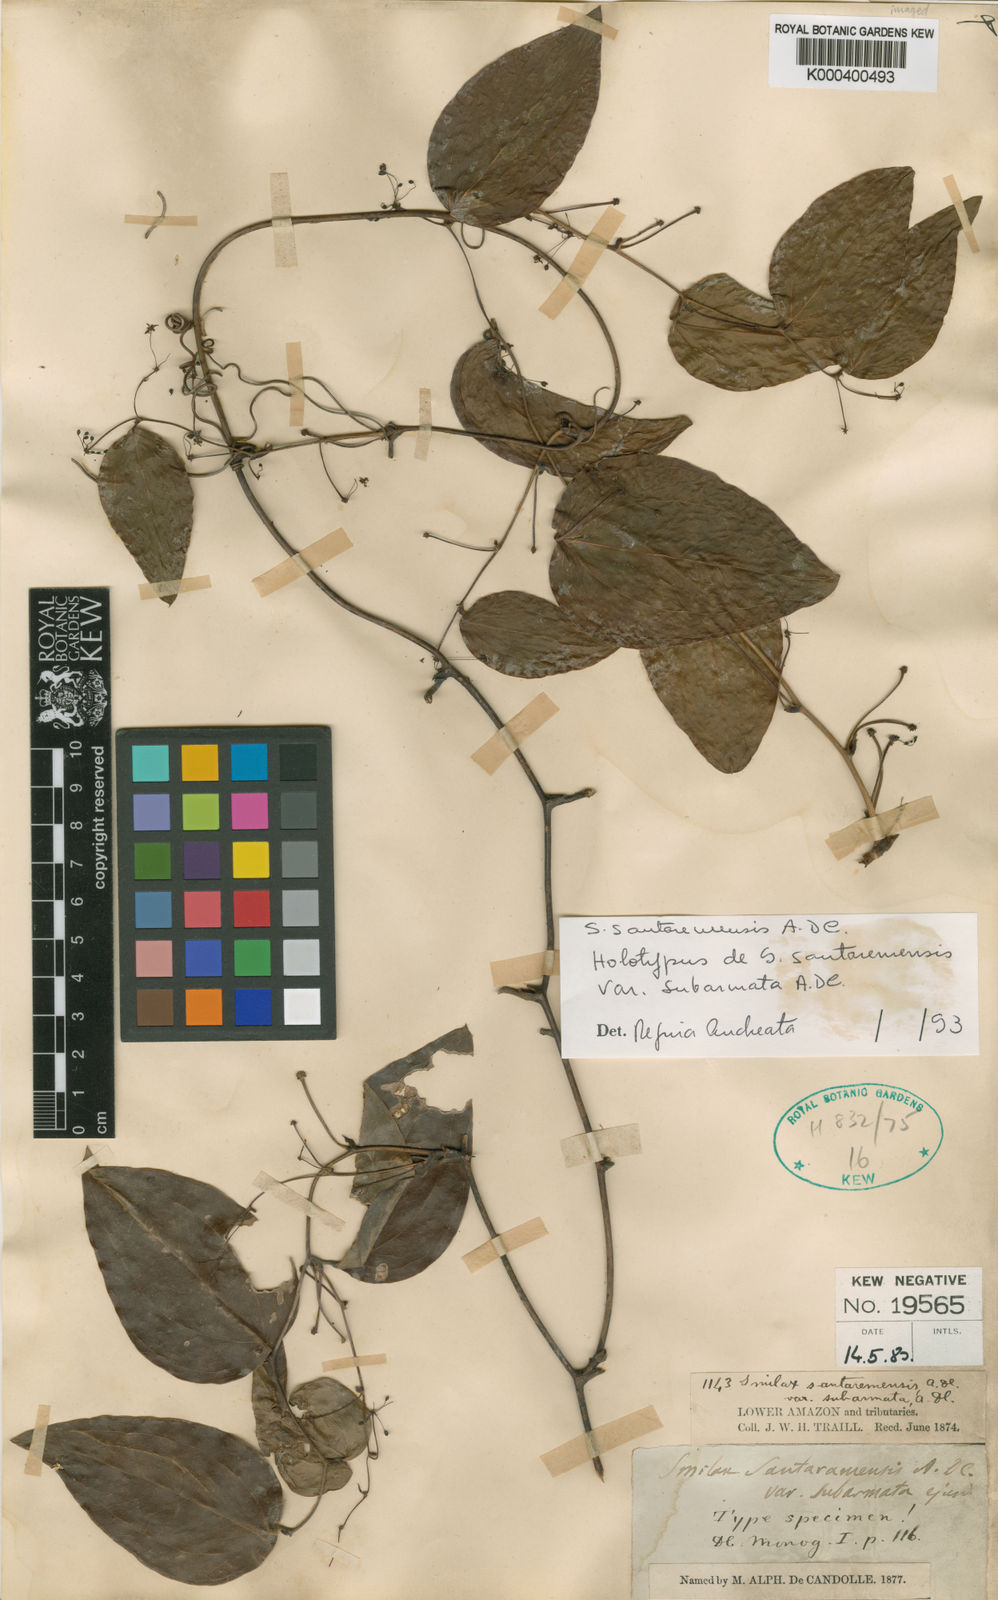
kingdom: Plantae
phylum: Tracheophyta
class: Liliopsida
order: Liliales
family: Smilacaceae
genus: Smilax
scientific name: Smilax santaremensis
